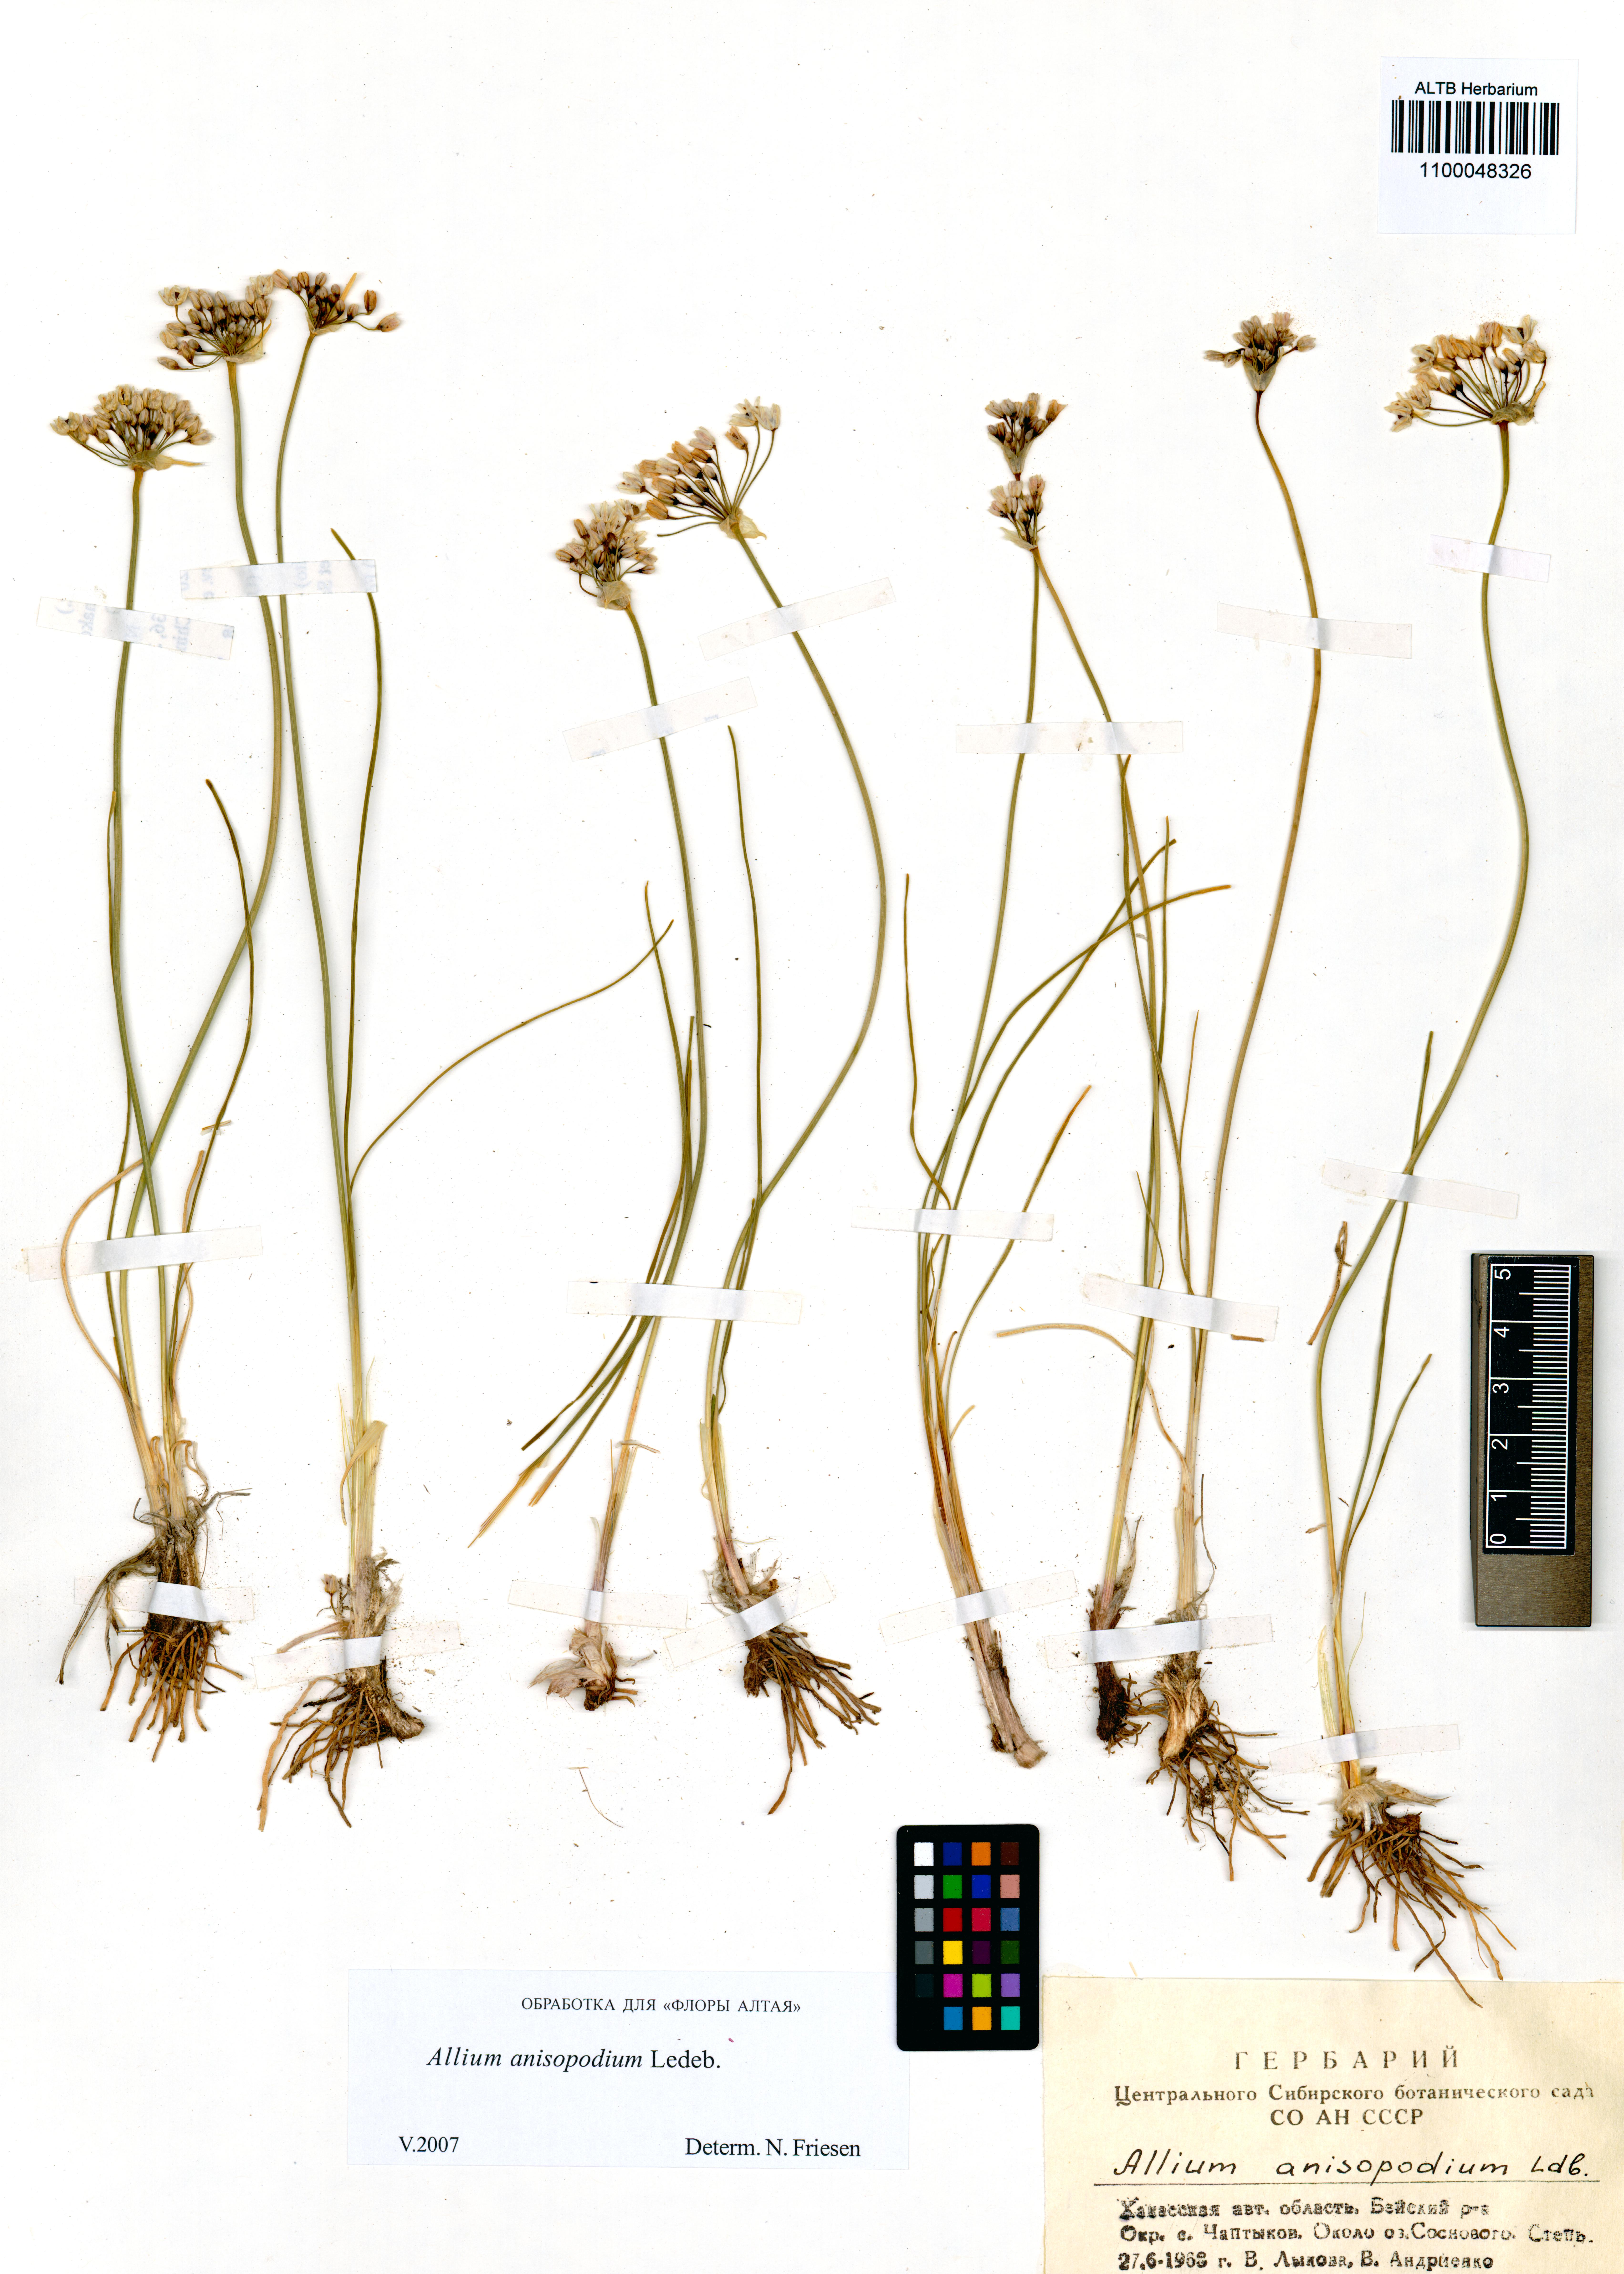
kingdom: Plantae
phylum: Tracheophyta
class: Liliopsida
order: Asparagales
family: Amaryllidaceae
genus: Allium
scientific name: Allium anisopodium
